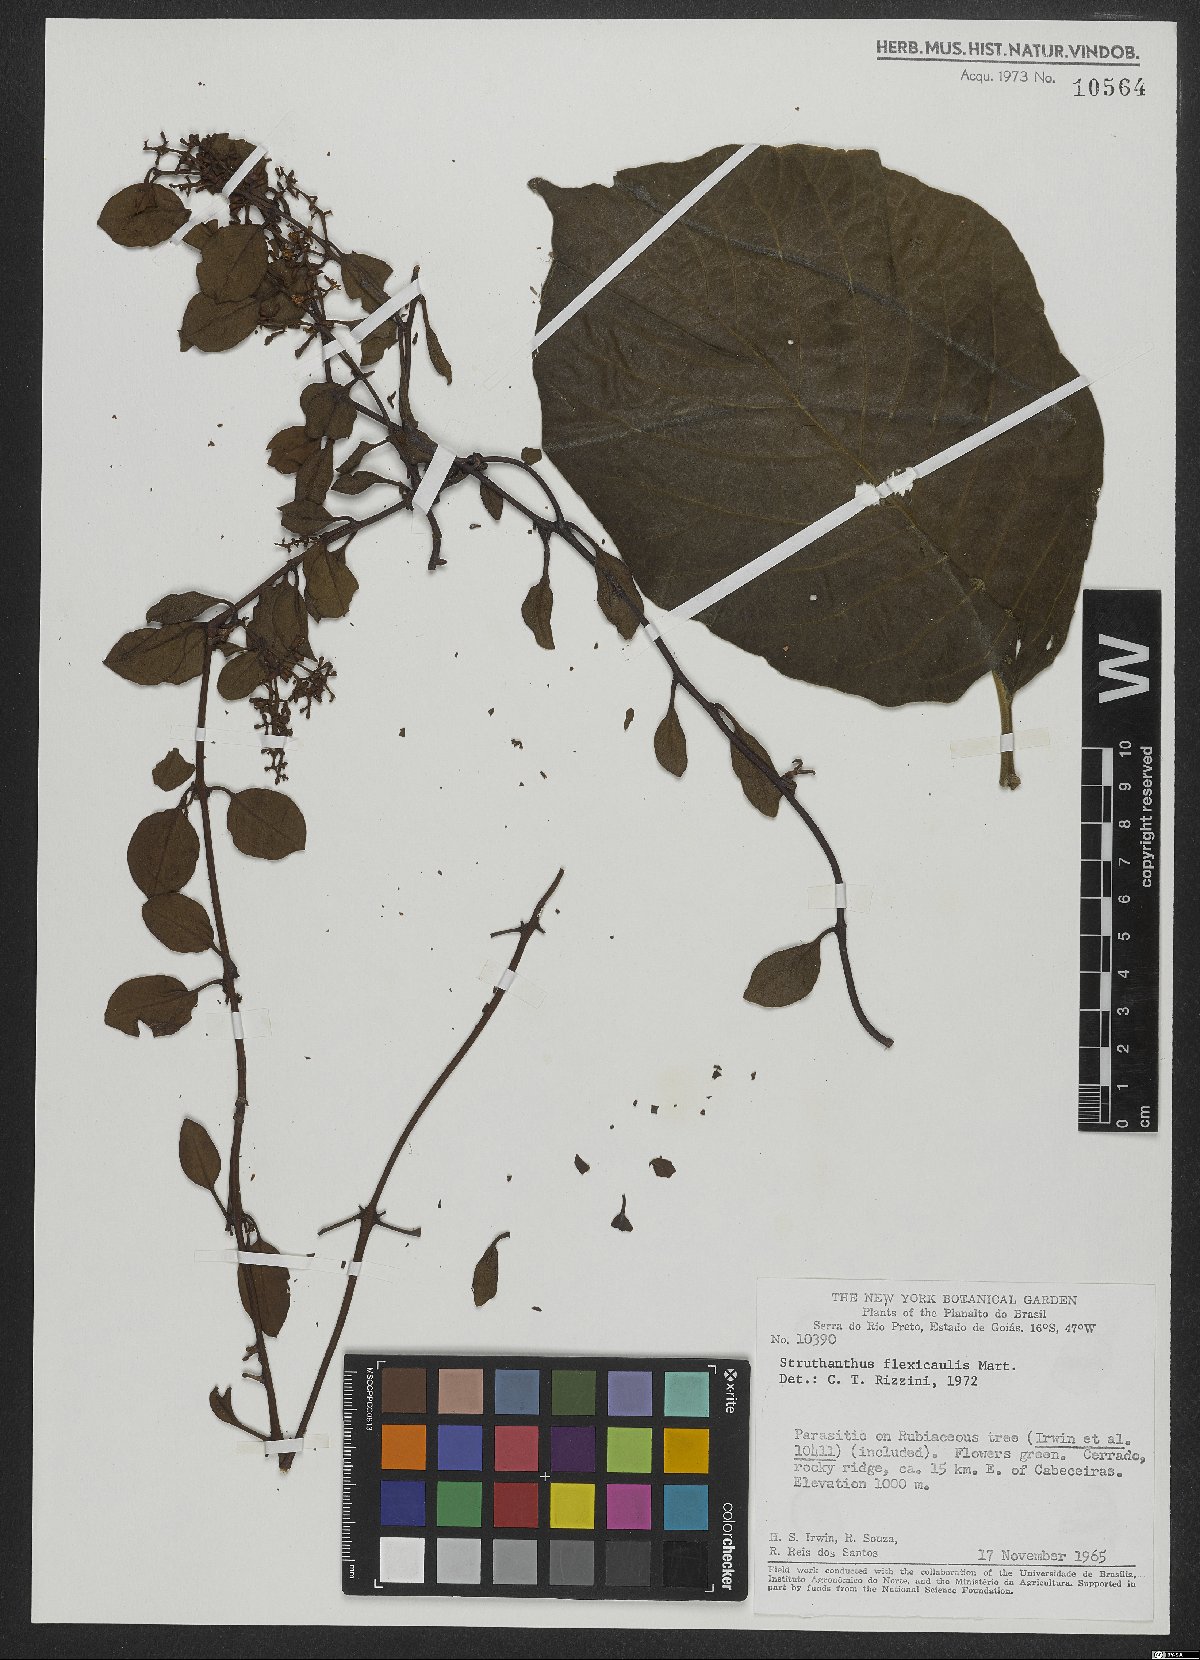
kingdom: Plantae
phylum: Tracheophyta
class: Magnoliopsida
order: Santalales
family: Loranthaceae
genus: Struthanthus
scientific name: Struthanthus flexicaulis
